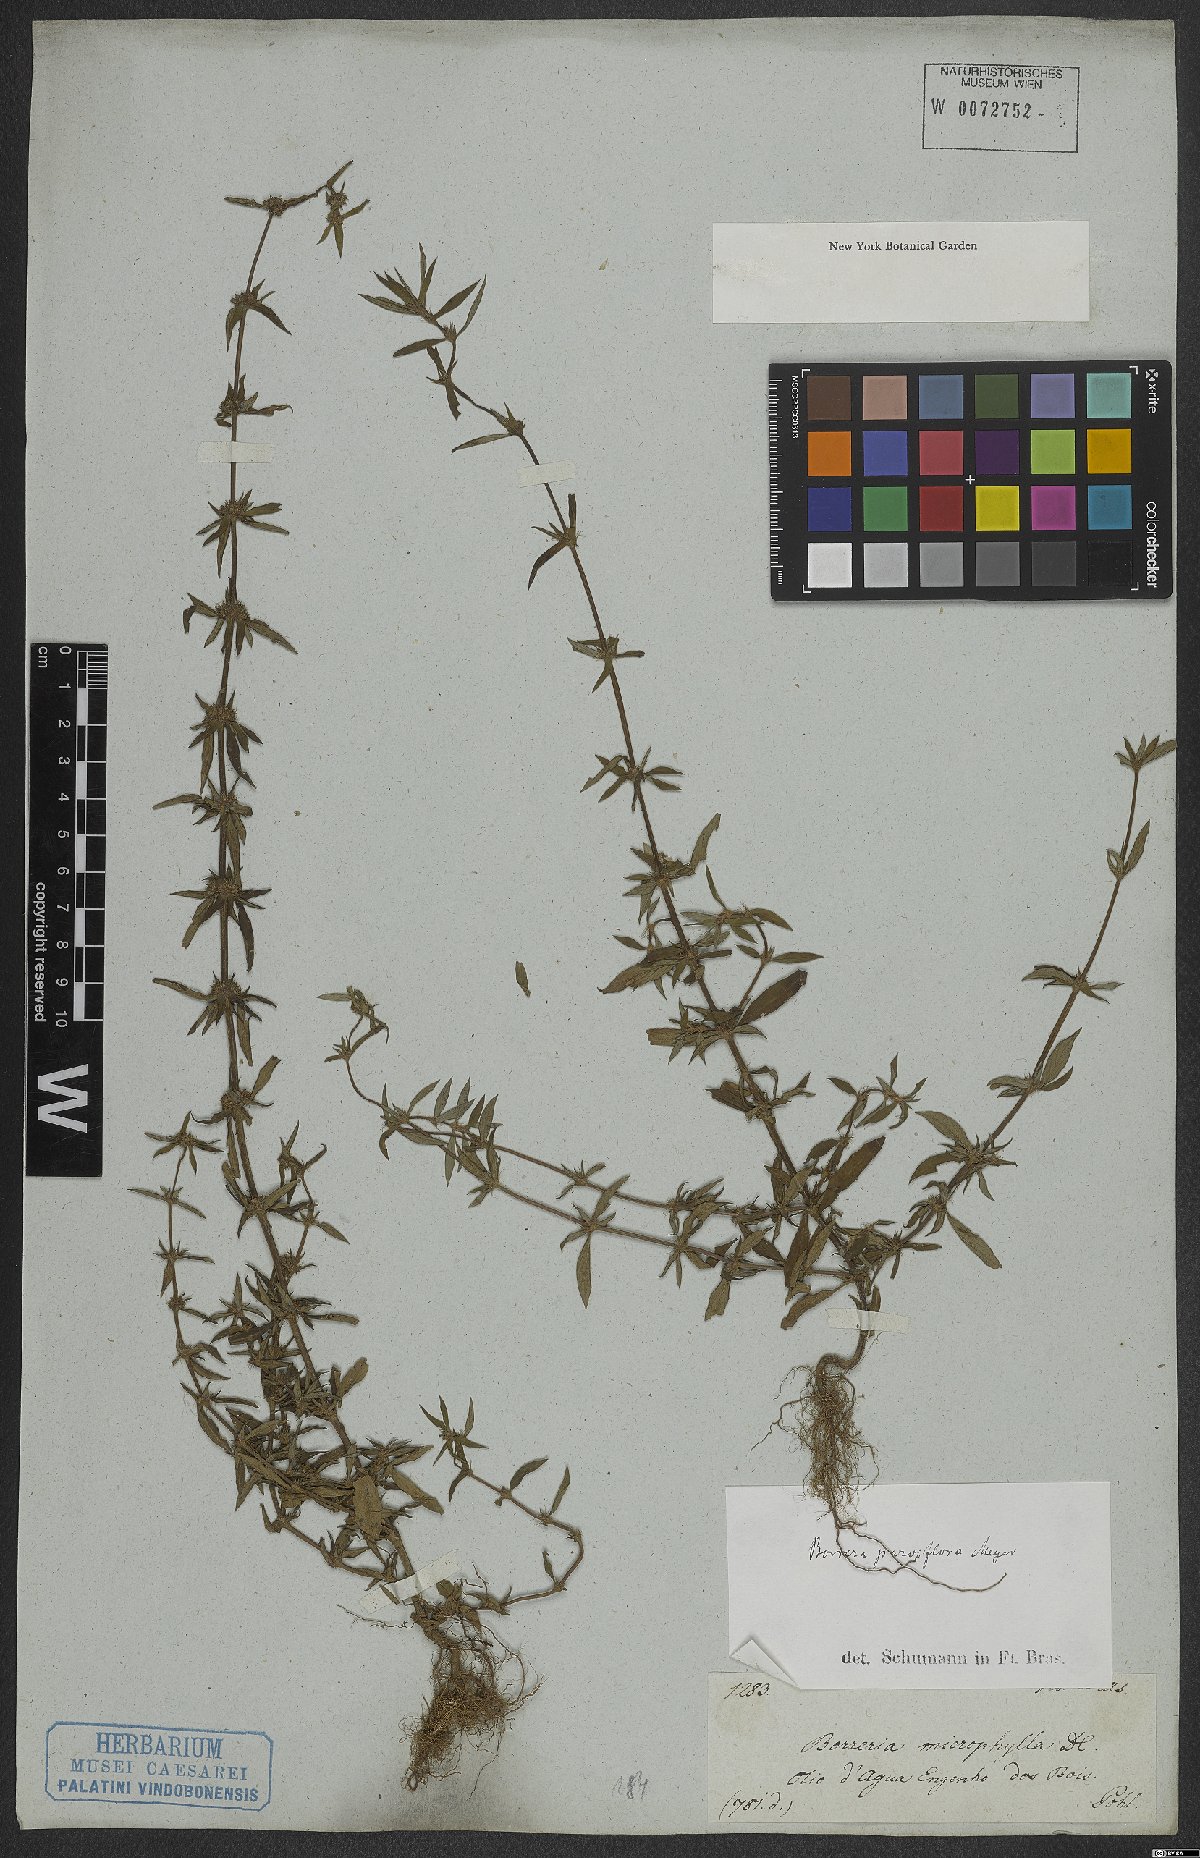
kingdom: Plantae
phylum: Tracheophyta
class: Magnoliopsida
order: Gentianales
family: Rubiaceae
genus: Spermacoce
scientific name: Spermacoce remota
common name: Woodland false buttonweed
